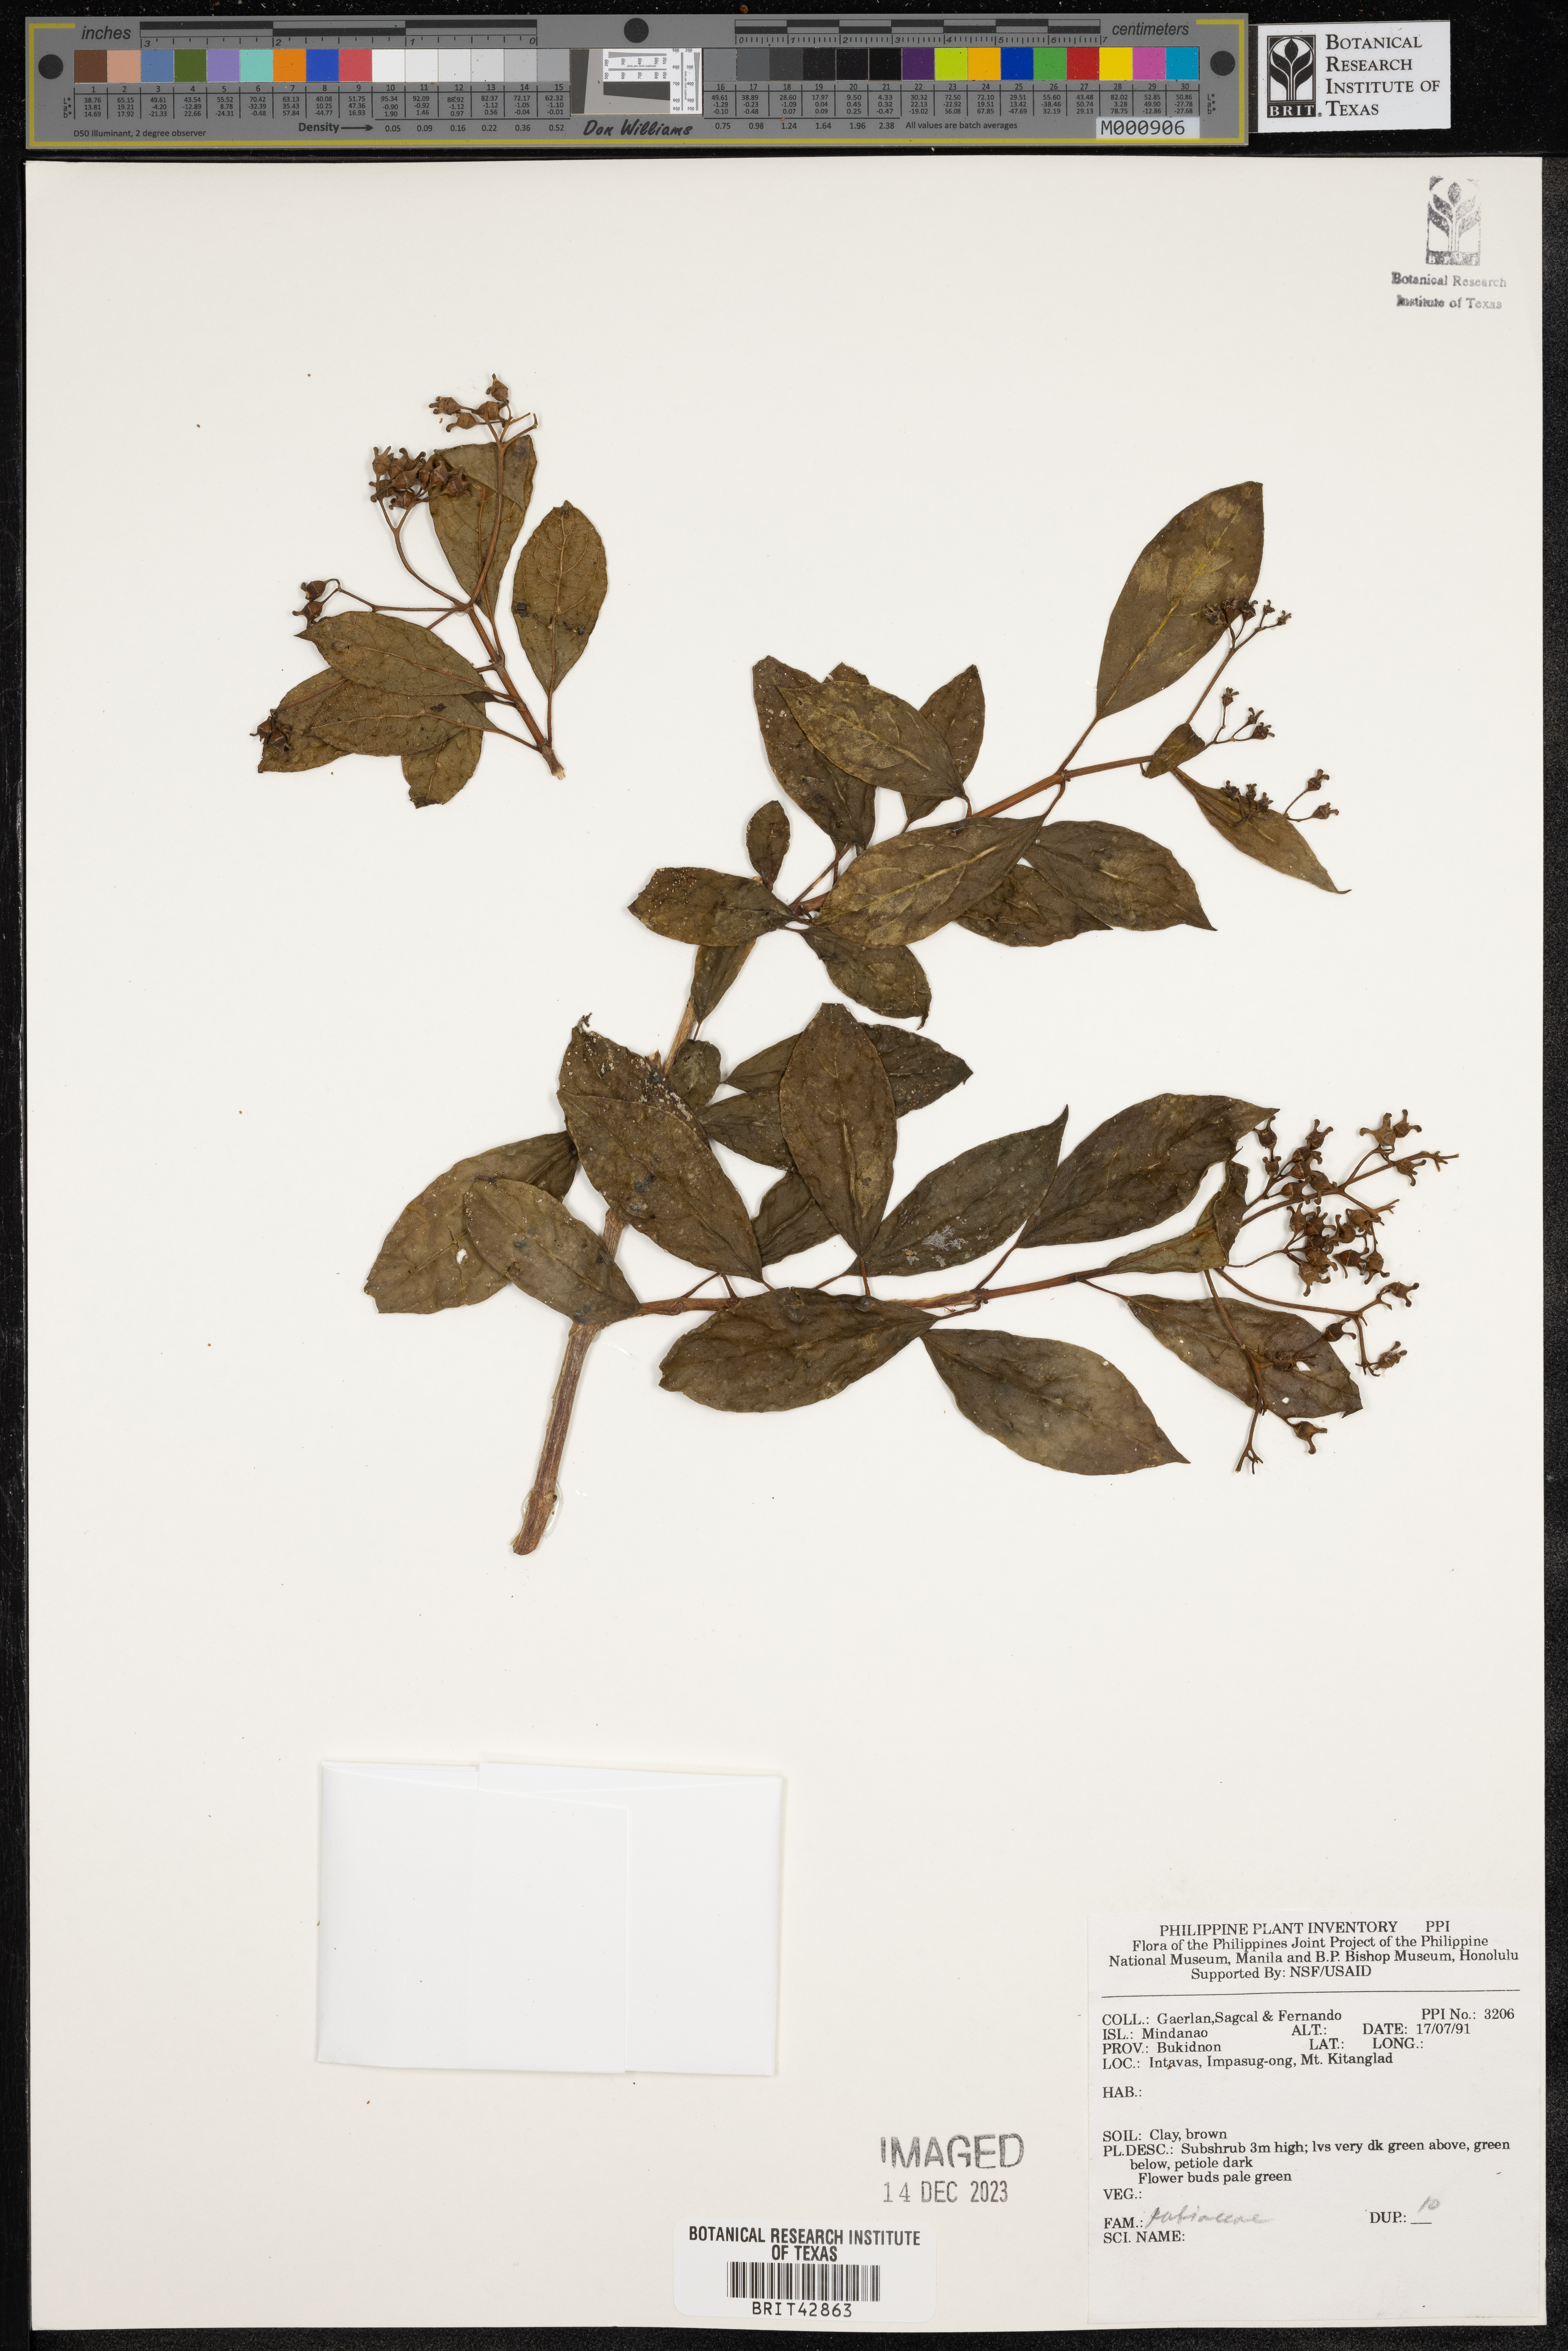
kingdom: Plantae
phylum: Tracheophyta
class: Magnoliopsida
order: Gentianales
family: Rubiaceae
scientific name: Rubiaceae
